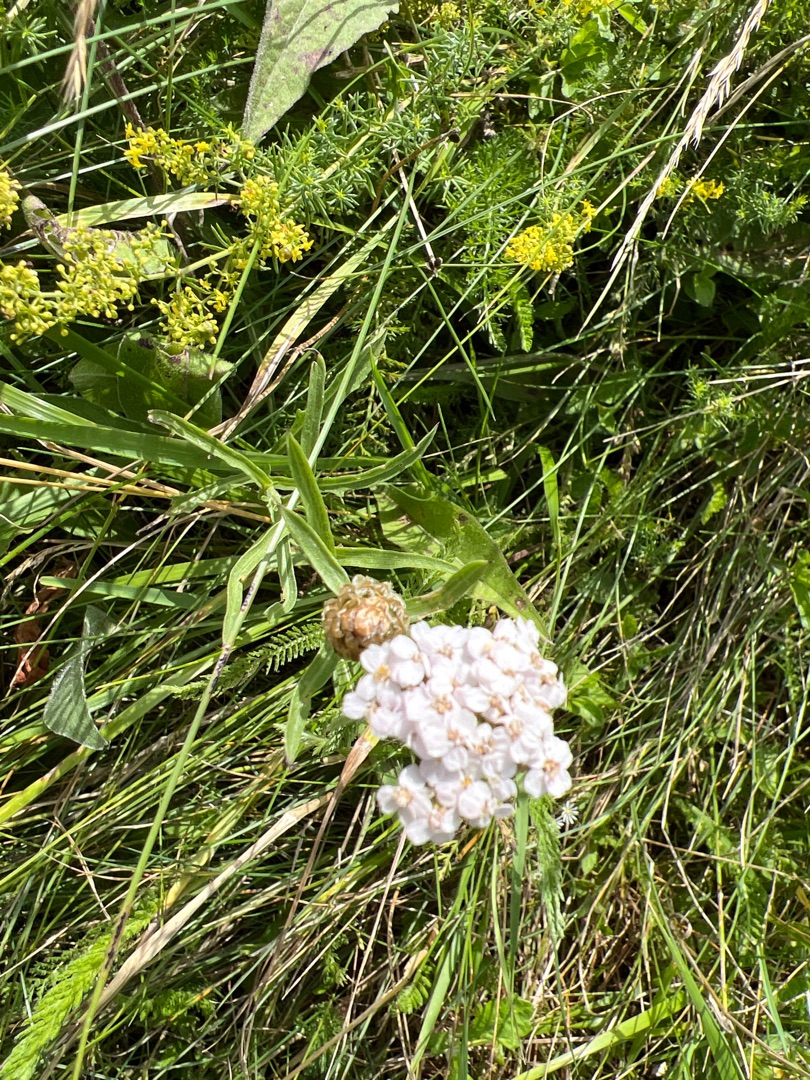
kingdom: Plantae
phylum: Tracheophyta
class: Magnoliopsida
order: Asterales
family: Asteraceae
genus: Achillea
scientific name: Achillea millefolium
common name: Almindelig røllike
